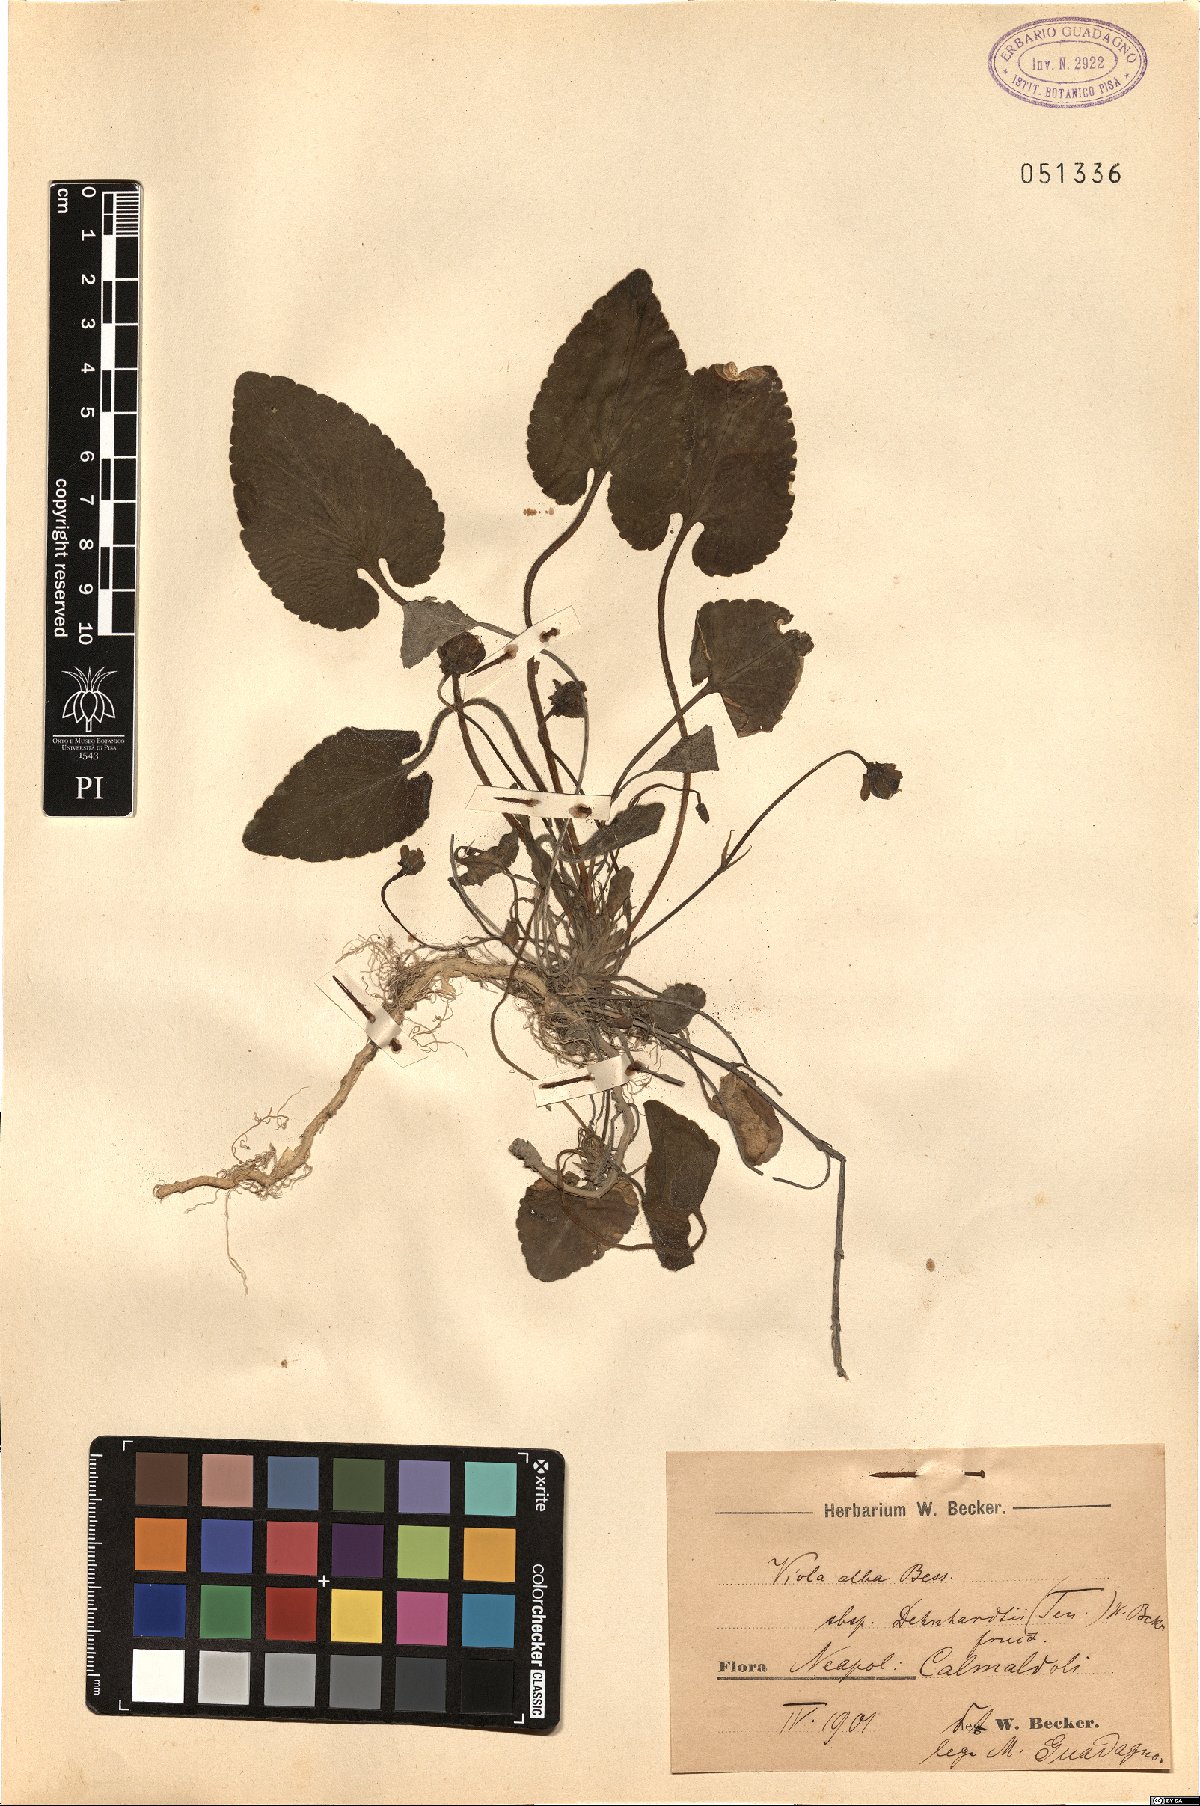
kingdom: Plantae
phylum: Tracheophyta
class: Magnoliopsida
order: Malpighiales
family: Violaceae
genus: Viola
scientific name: Viola alba
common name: White violet
